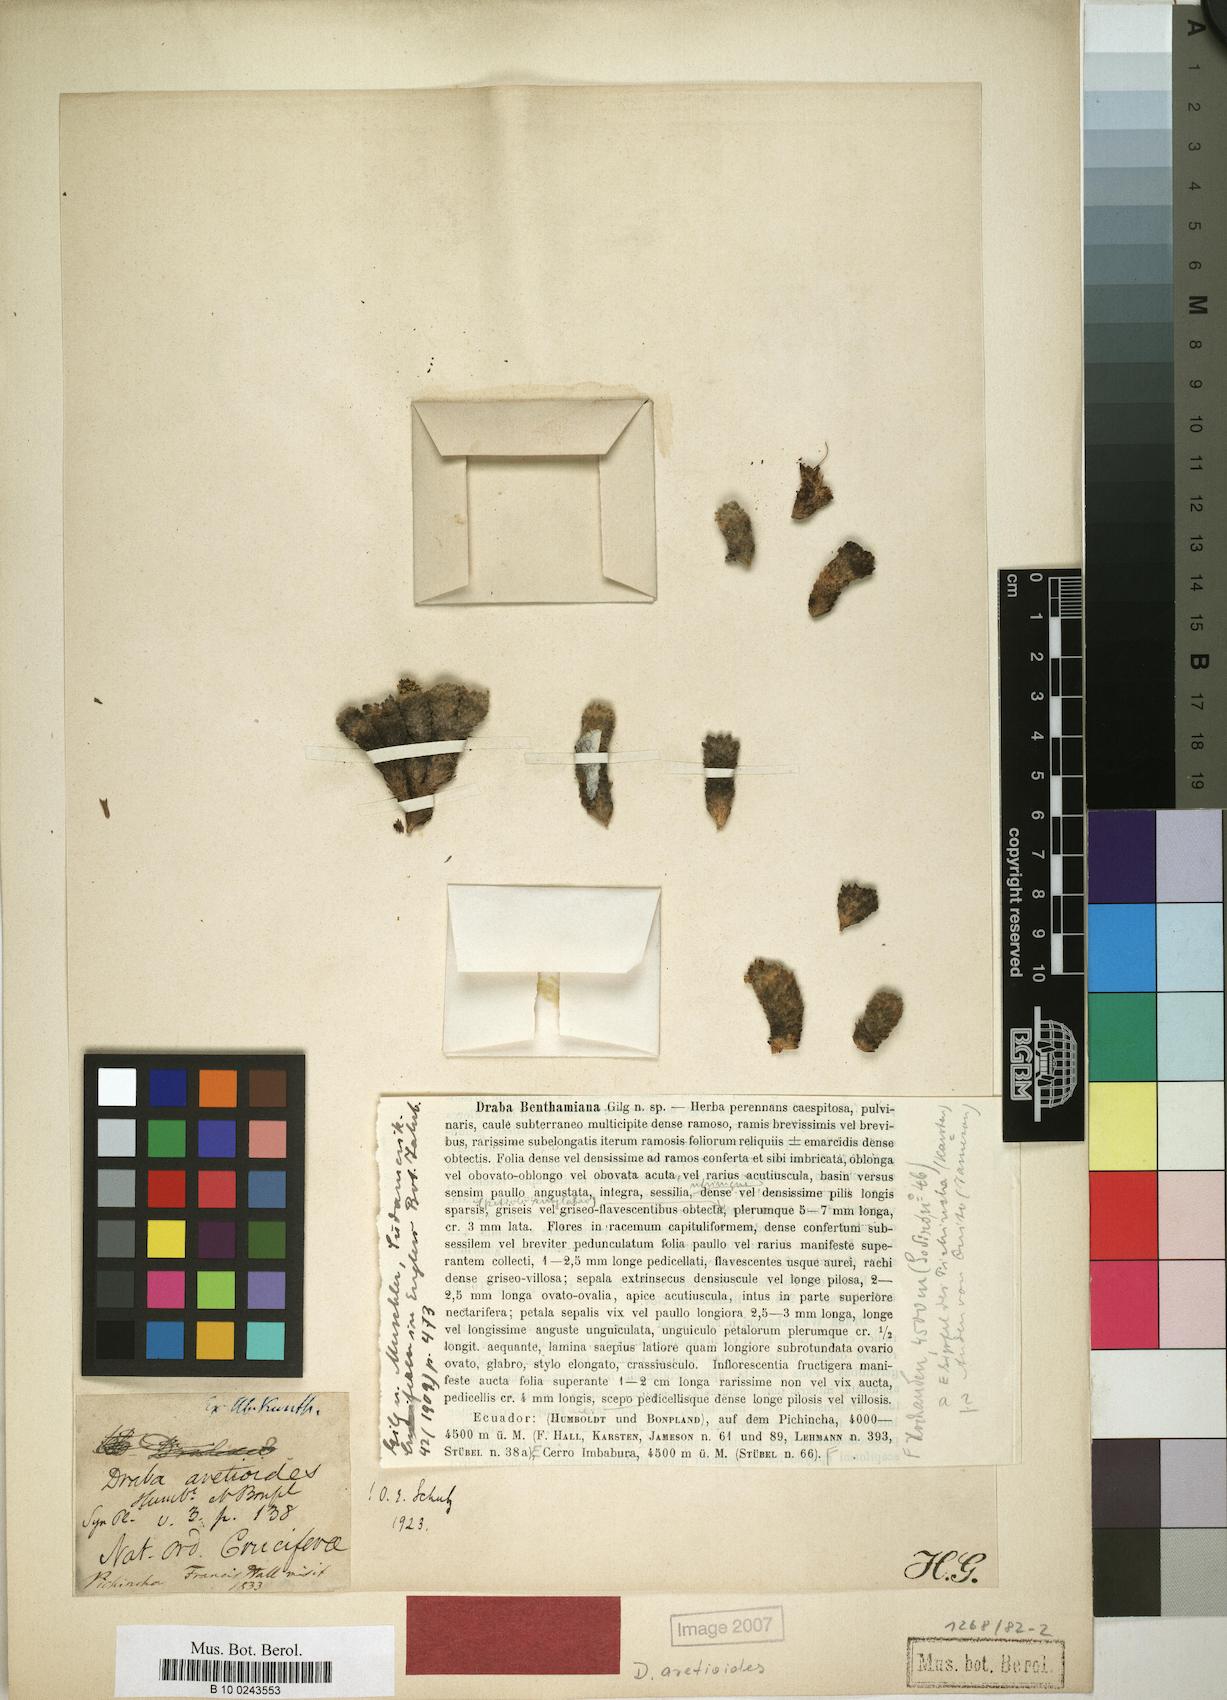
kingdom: Plantae
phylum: Tracheophyta
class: Magnoliopsida
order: Brassicales
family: Brassicaceae
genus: Draba
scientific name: Draba aretioides
